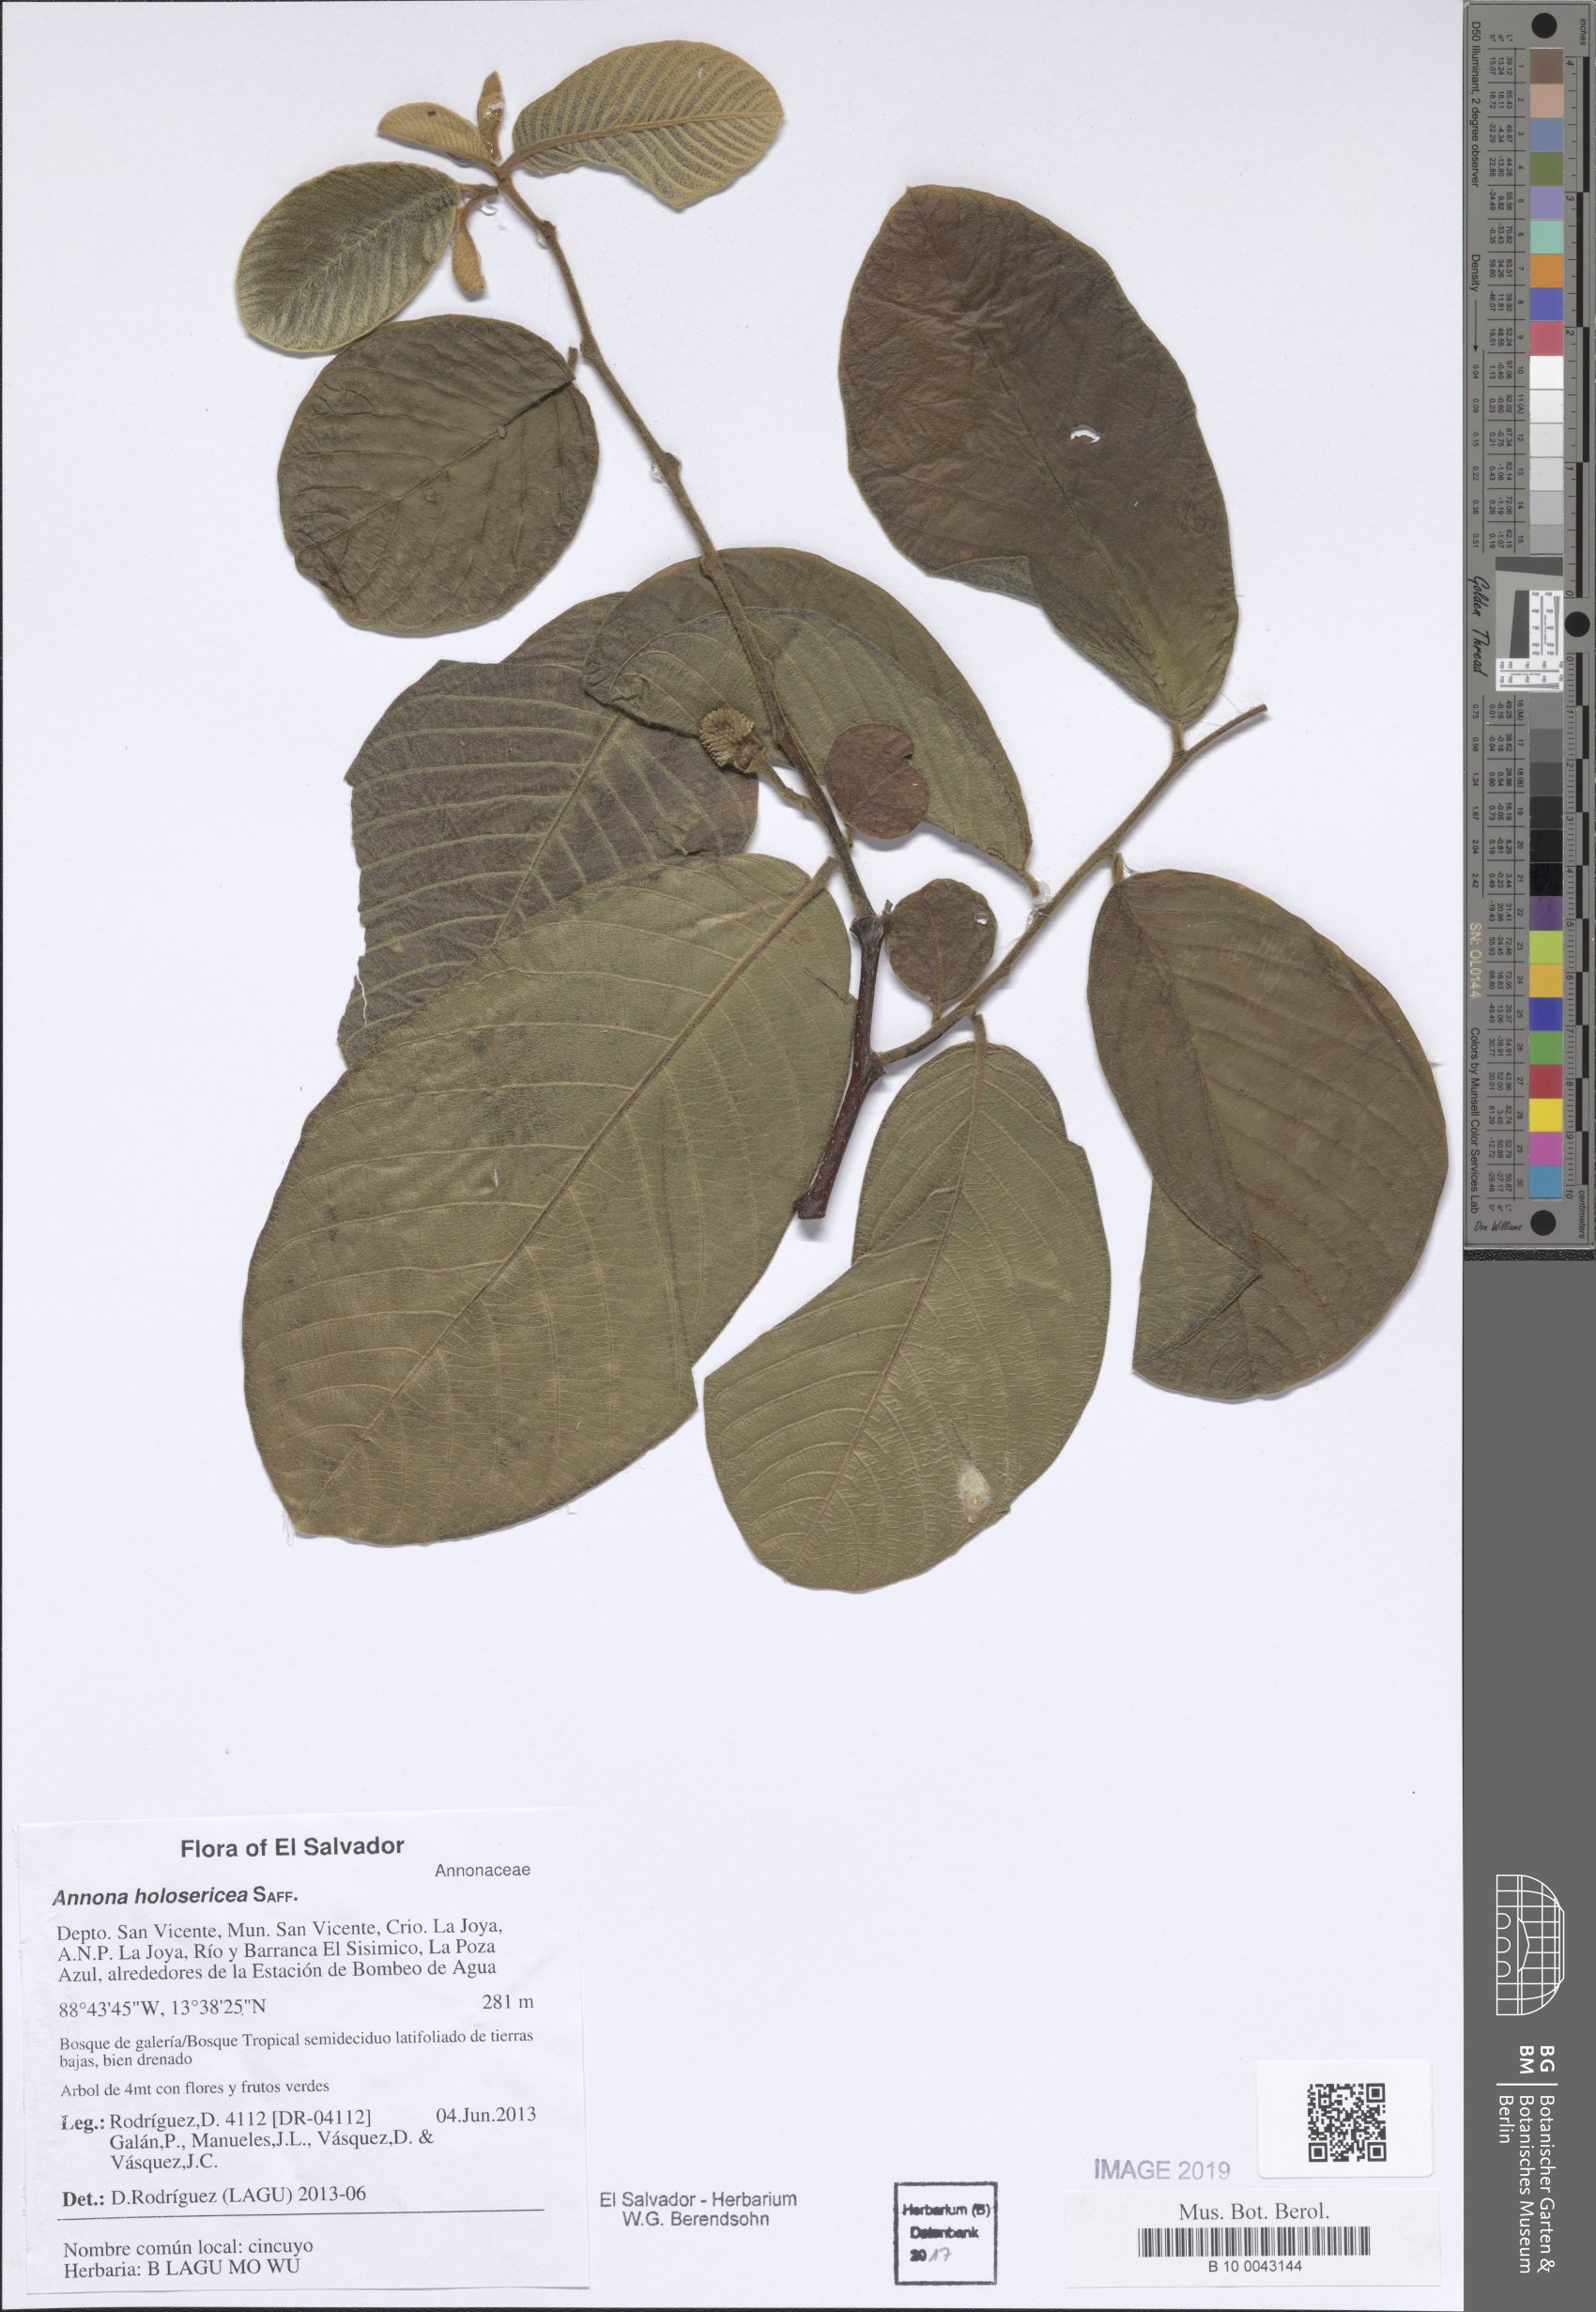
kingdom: Plantae
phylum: Tracheophyta
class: Magnoliopsida
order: Magnoliales
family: Annonaceae
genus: Annona
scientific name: Annona holosericea
